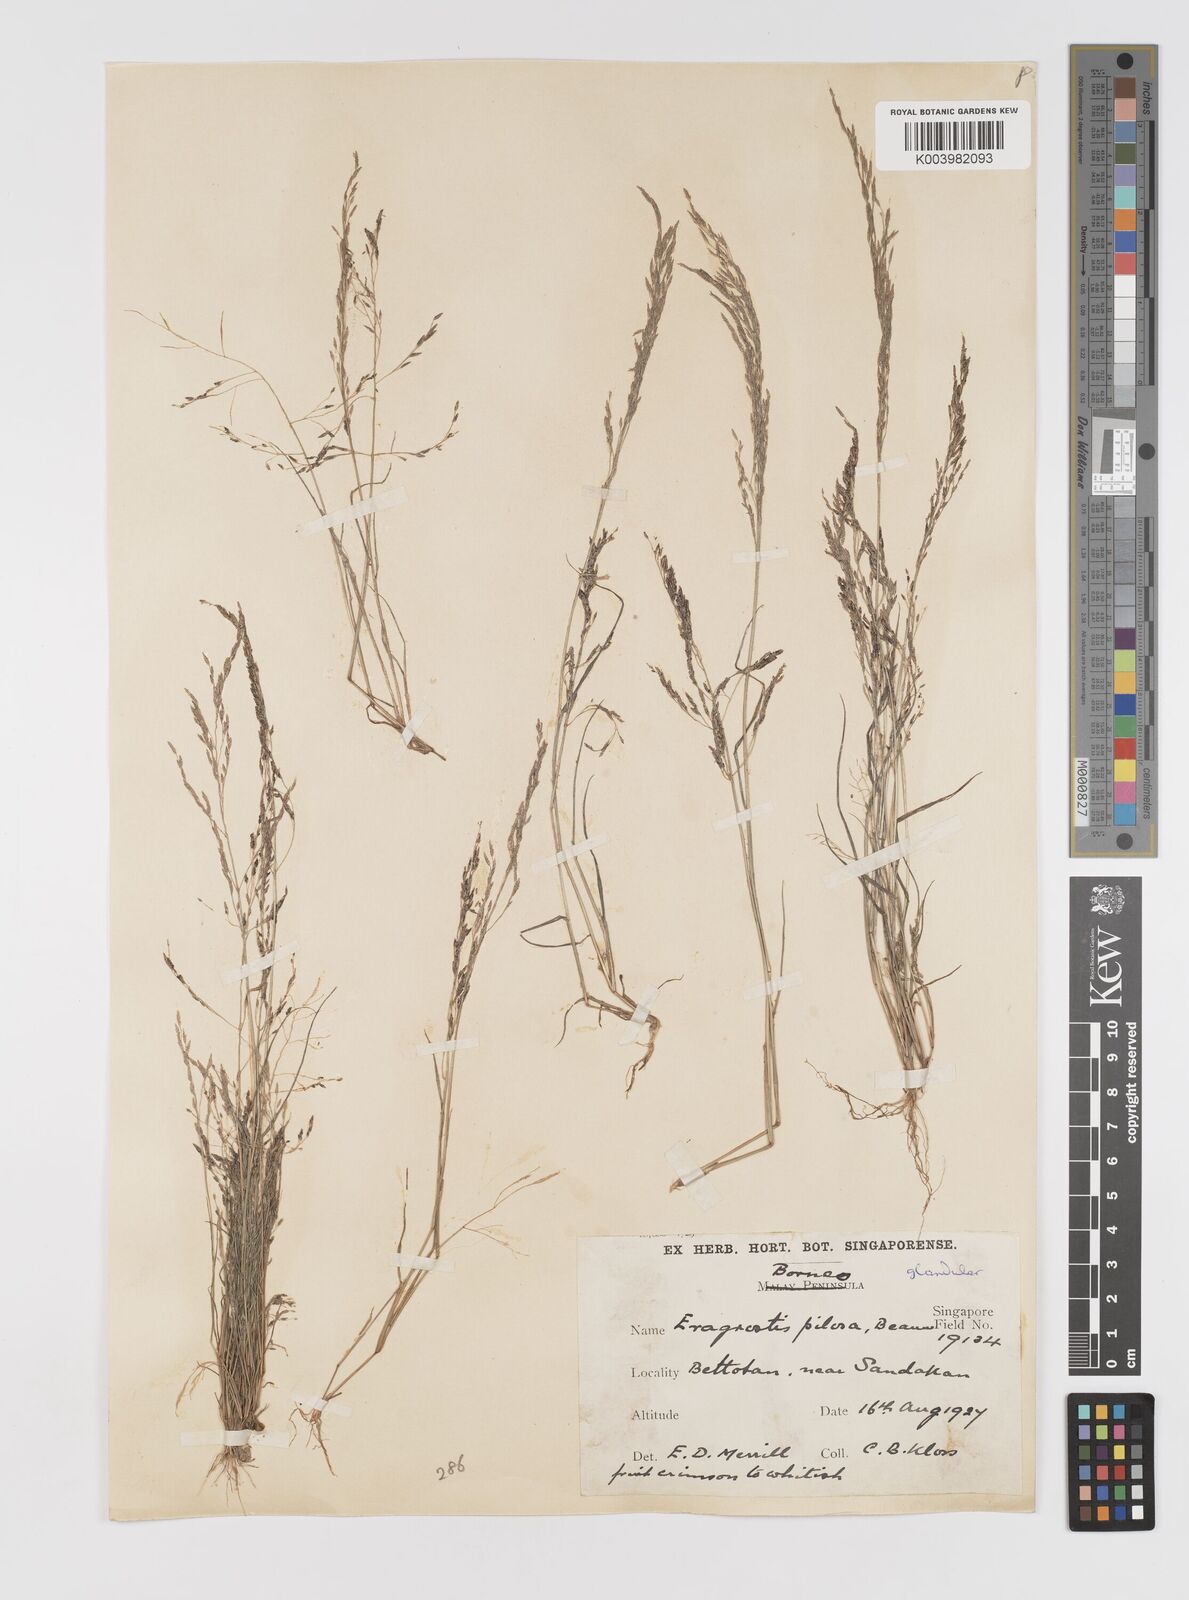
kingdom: Plantae
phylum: Tracheophyta
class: Liliopsida
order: Poales
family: Poaceae
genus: Eragrostis
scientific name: Eragrostis pilosa
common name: Indian lovegrass
